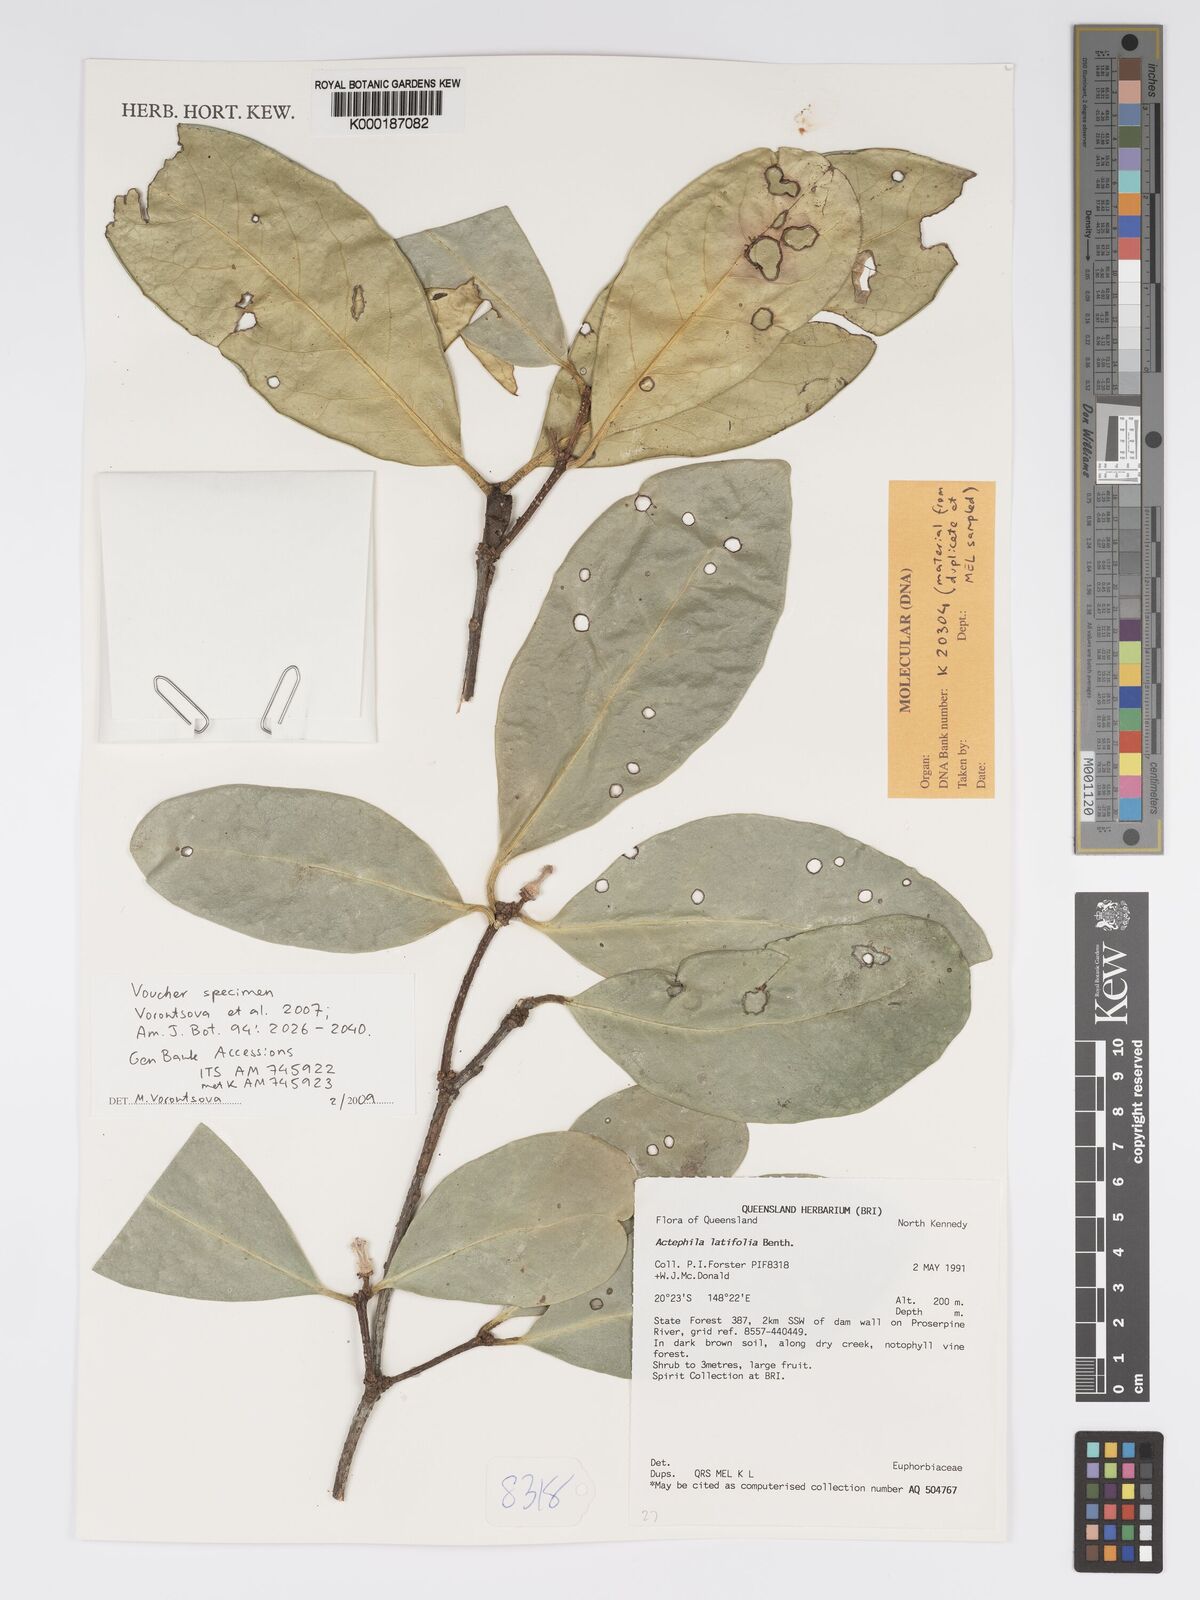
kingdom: Plantae
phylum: Tracheophyta
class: Magnoliopsida
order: Malpighiales
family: Phyllanthaceae
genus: Actephila
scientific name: Actephila latifolia
